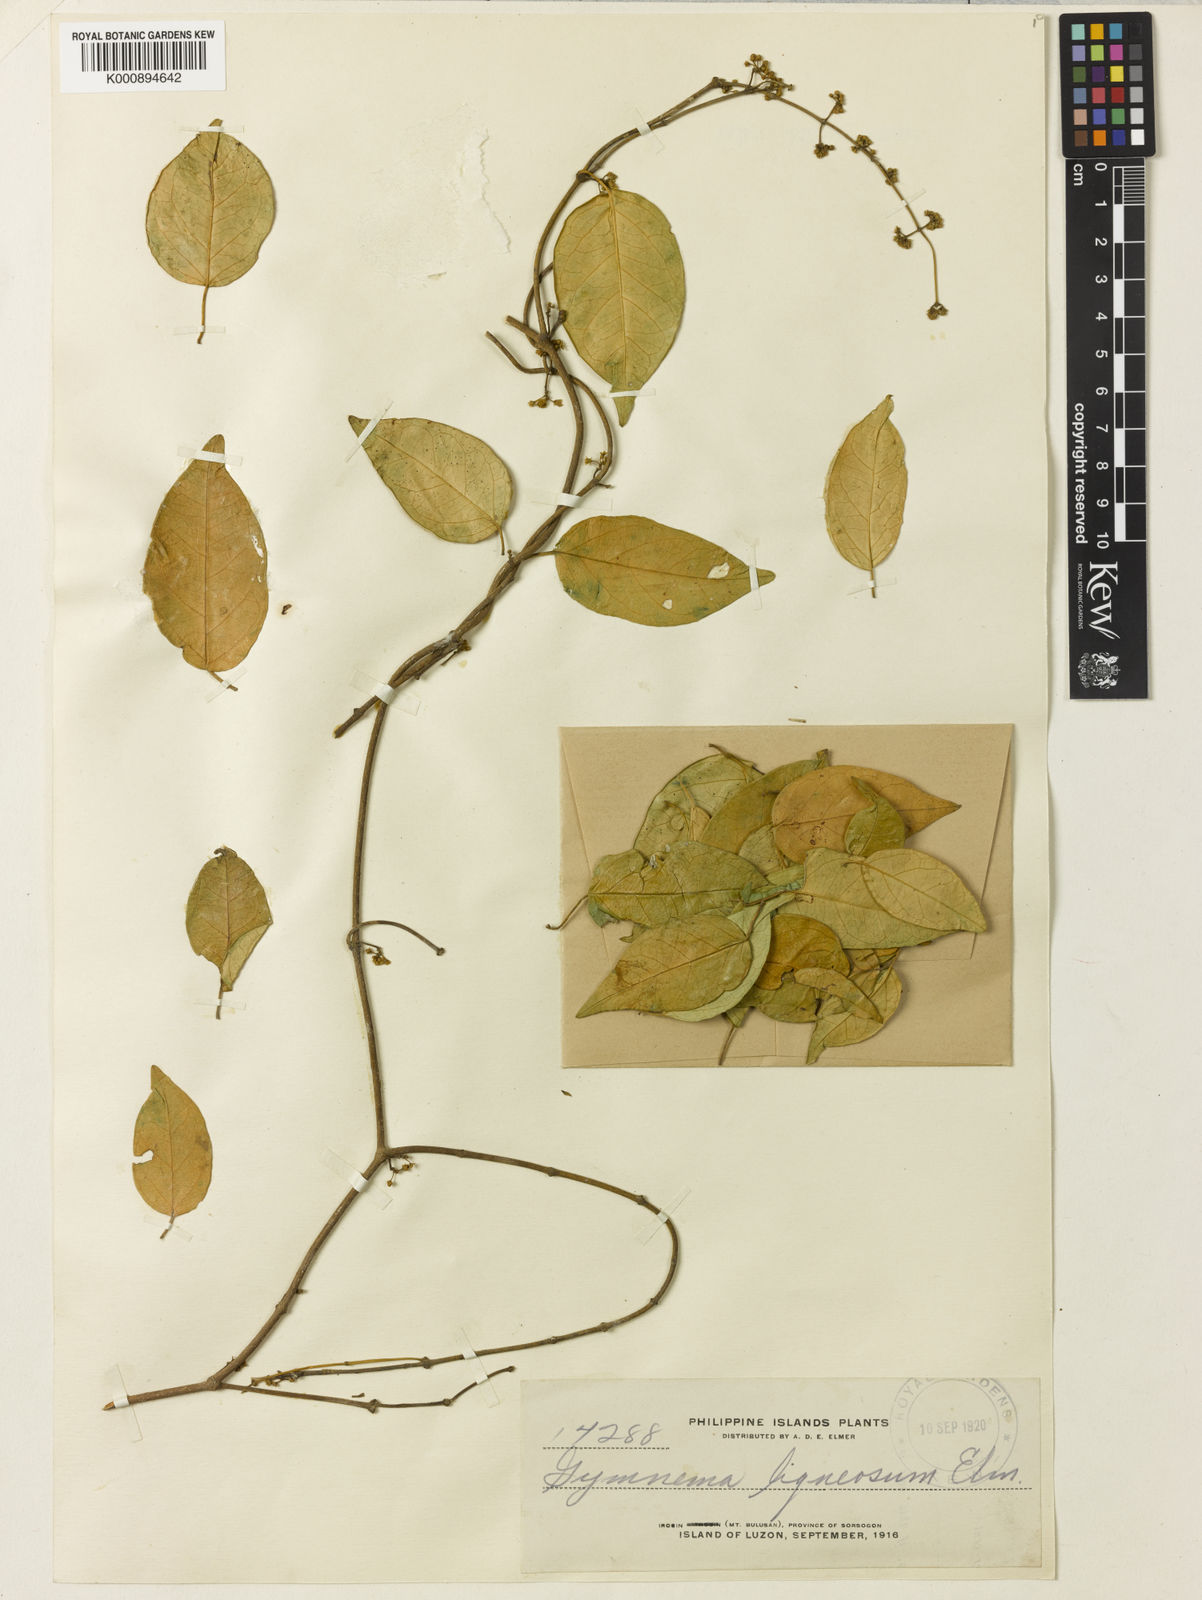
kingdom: Plantae
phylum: Tracheophyta
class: Magnoliopsida
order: Gentianales
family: Apocynaceae
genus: Gymnema
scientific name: Gymnema
